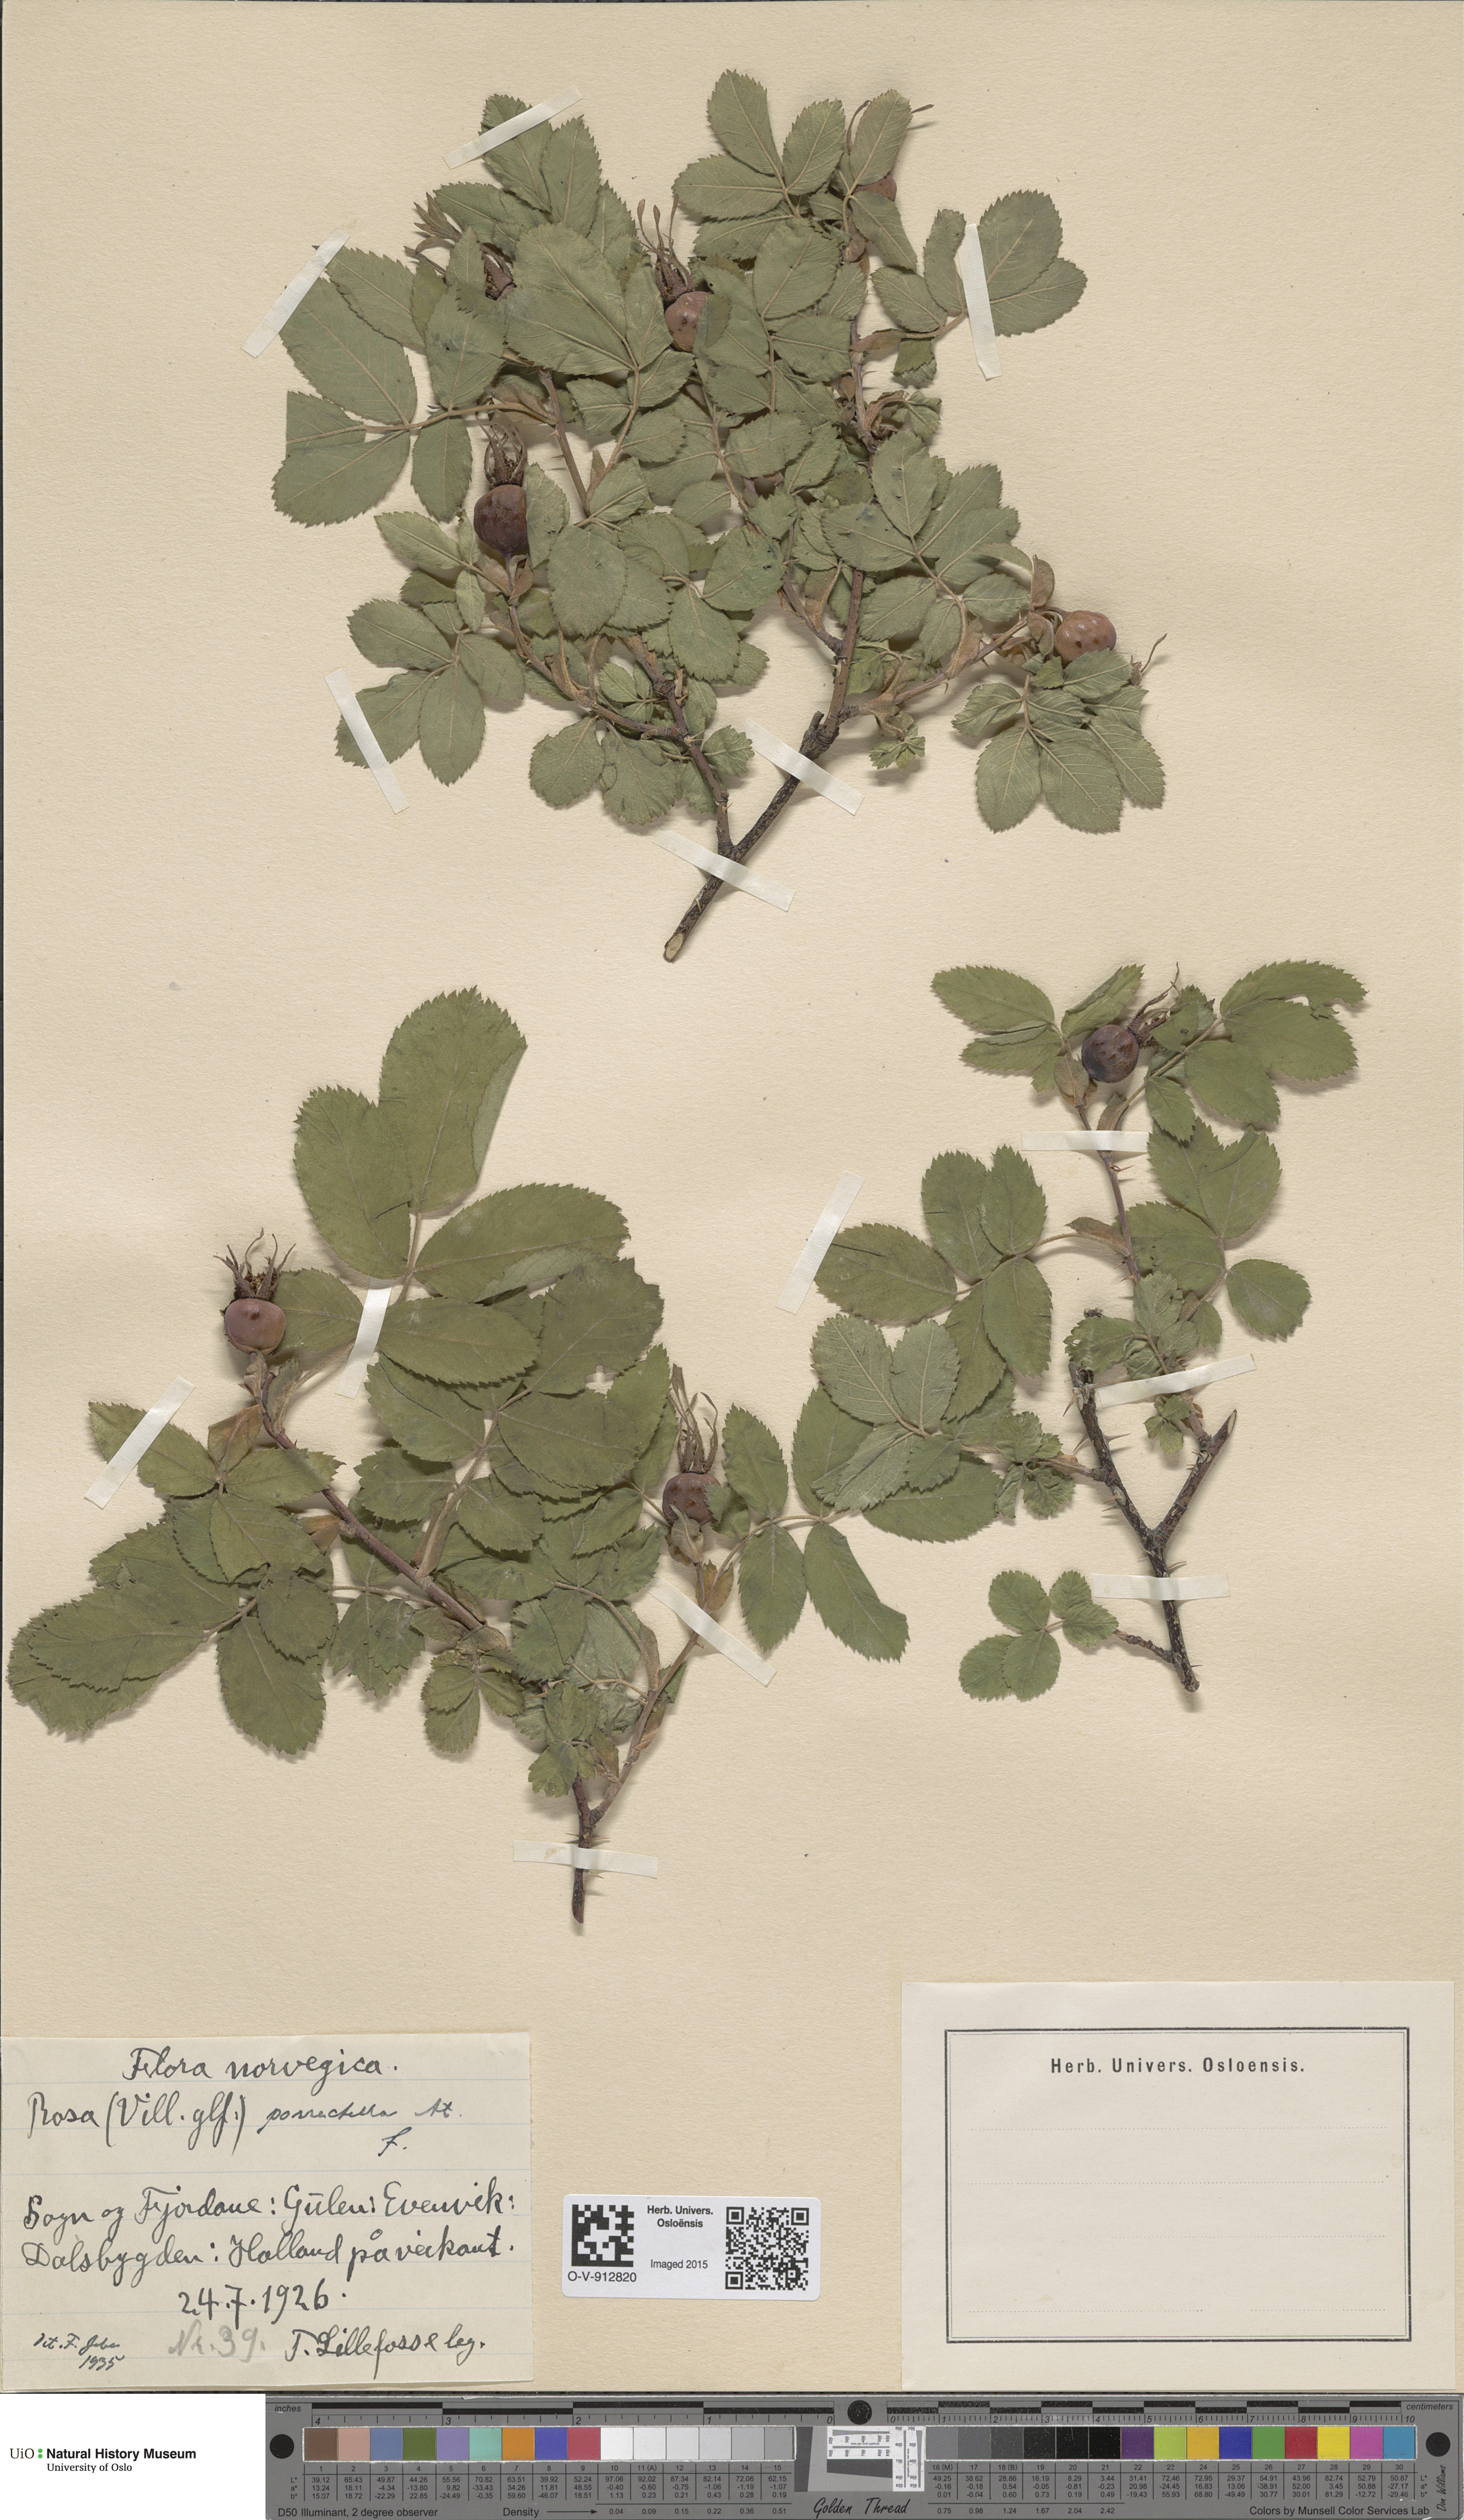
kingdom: Plantae
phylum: Tracheophyta
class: Magnoliopsida
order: Rosales
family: Rosaceae
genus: Rosa
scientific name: Rosa mollis
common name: Rose
